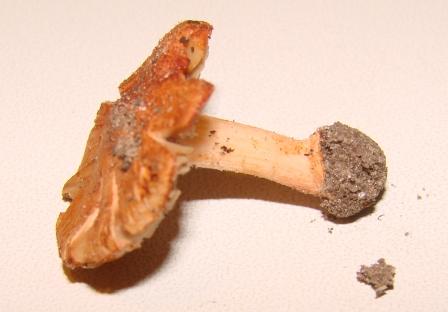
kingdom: Fungi
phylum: Basidiomycota
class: Agaricomycetes
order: Agaricales
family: Inocybaceae
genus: Inocybe
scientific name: Inocybe godeyi
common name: orangerødmende trævlhat
